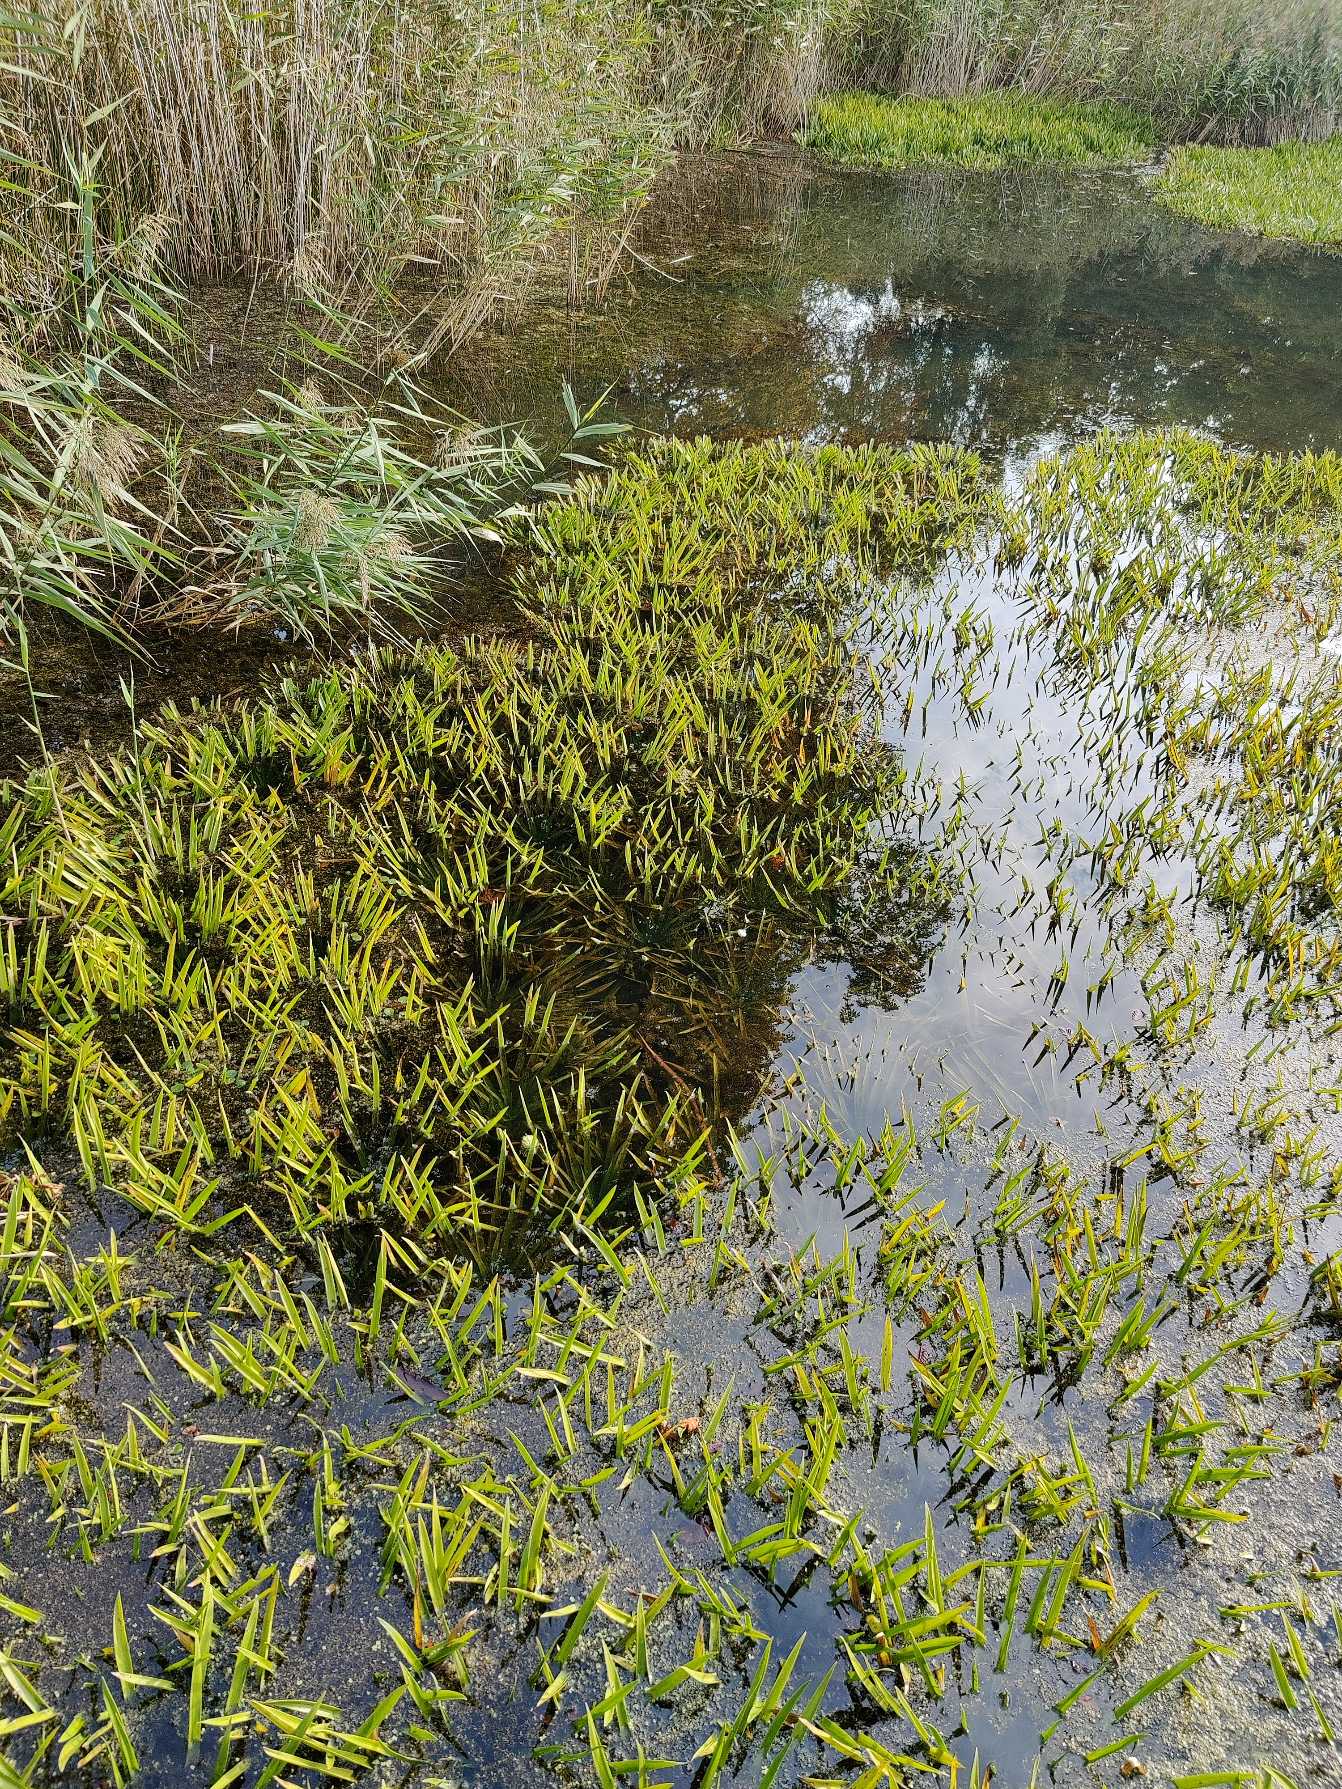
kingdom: Plantae
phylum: Tracheophyta
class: Liliopsida
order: Alismatales
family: Hydrocharitaceae
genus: Stratiotes
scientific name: Stratiotes aloides
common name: Krebseklo
